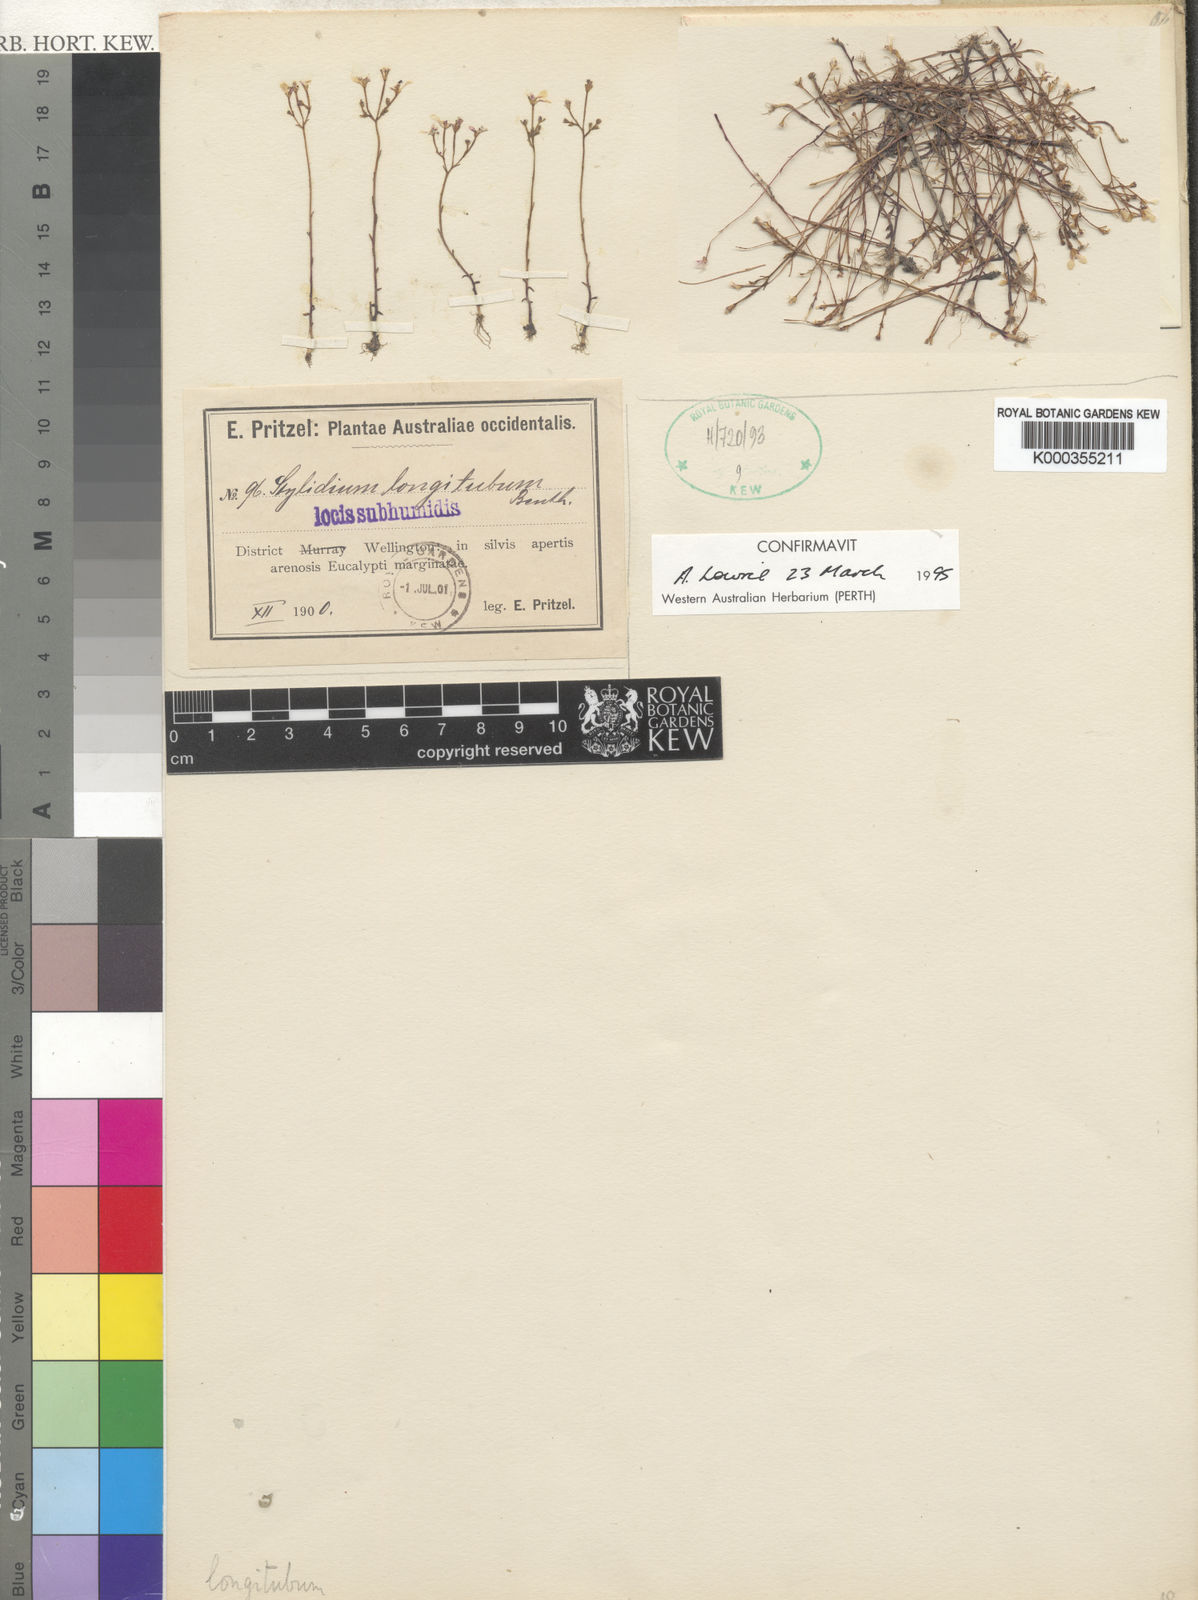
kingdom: Plantae
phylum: Tracheophyta
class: Magnoliopsida
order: Asterales
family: Stylidiaceae
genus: Stylidium
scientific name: Stylidium utricularioides
